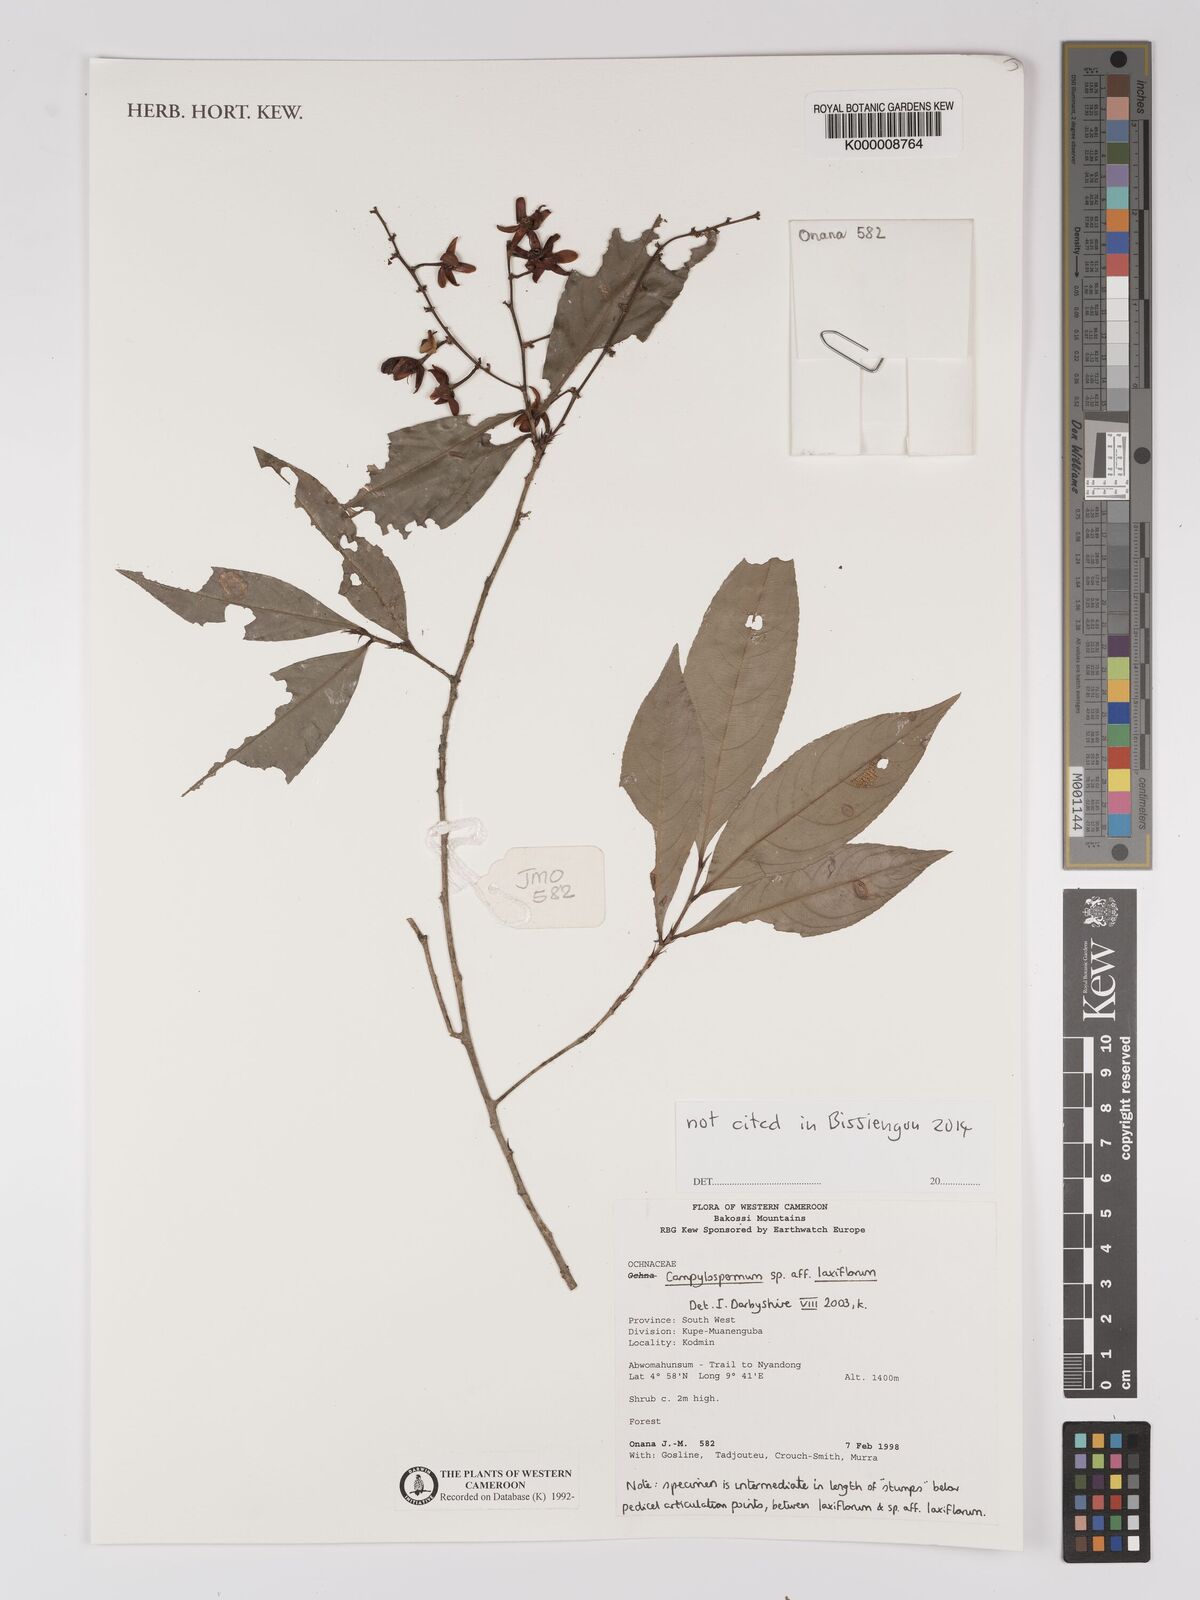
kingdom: Plantae
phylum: Tracheophyta
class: Magnoliopsida
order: Malpighiales
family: Ochnaceae
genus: Campylospermum
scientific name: Campylospermum laxiflorum
